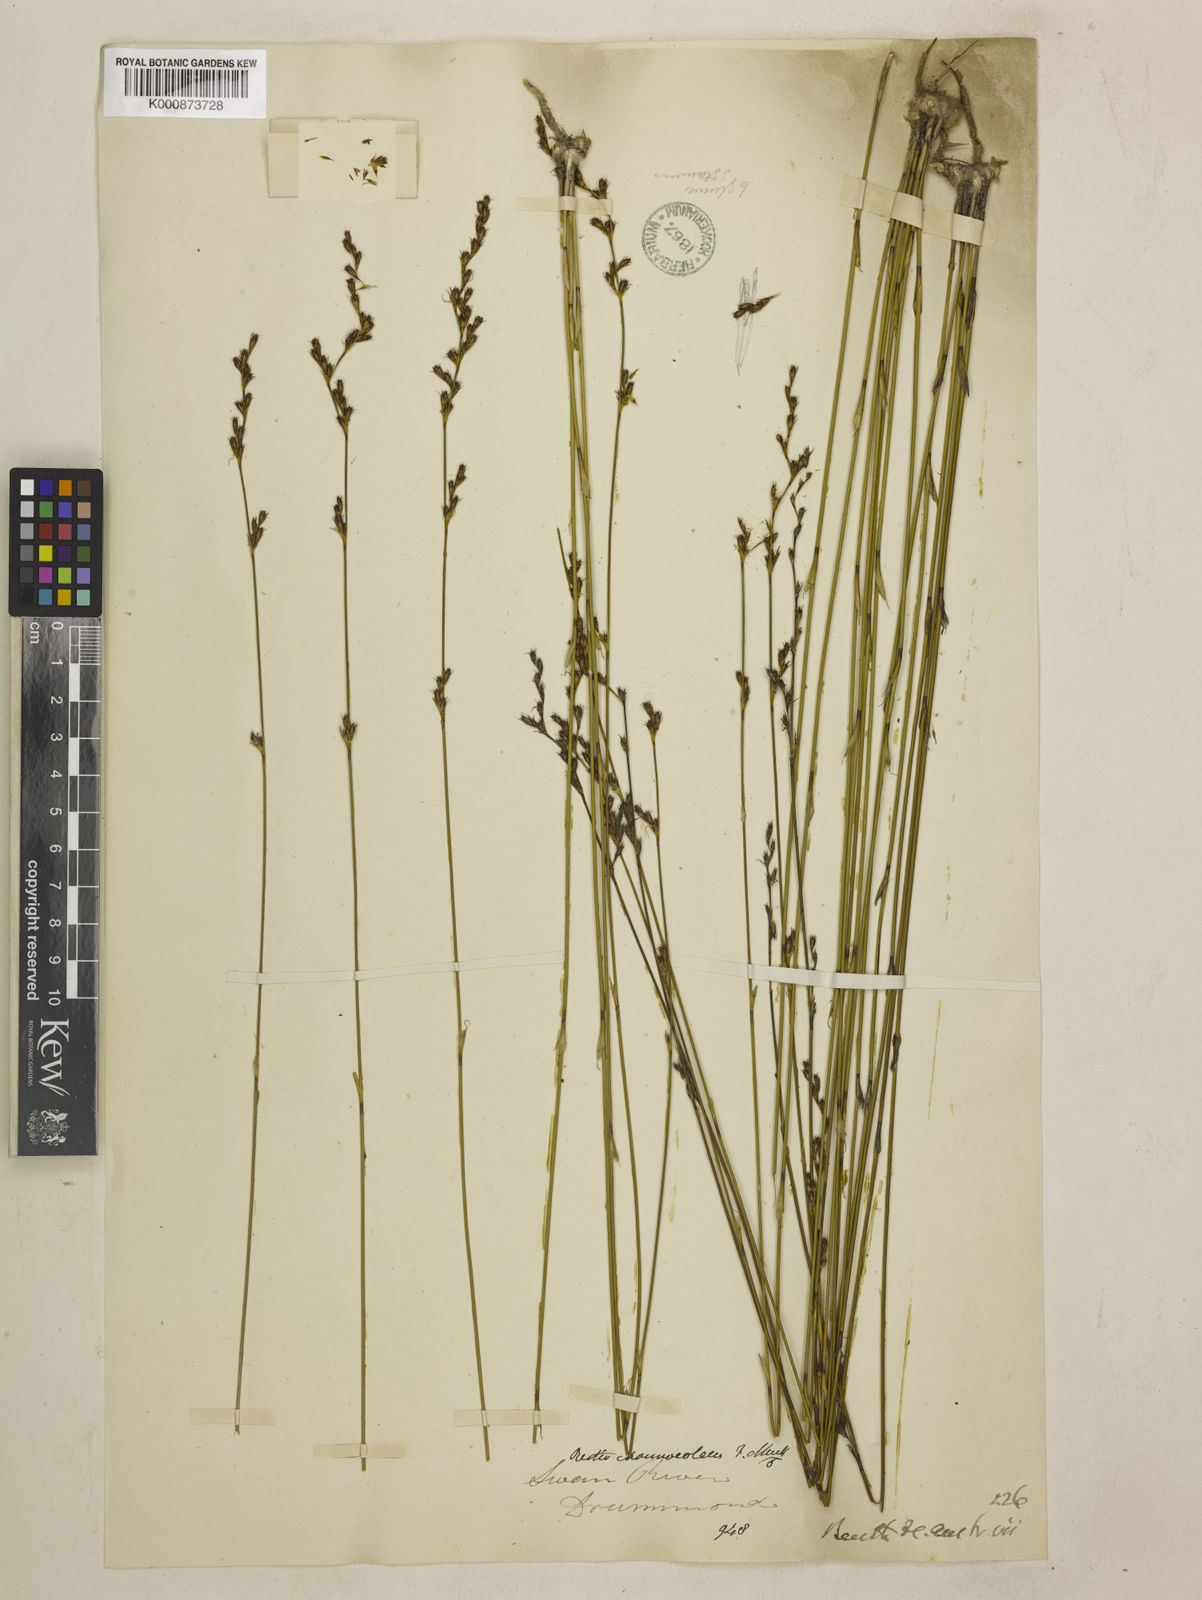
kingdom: Plantae
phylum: Tracheophyta
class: Liliopsida
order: Poales
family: Restionaceae
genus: Chordifex
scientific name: Chordifex chaunocoleus
